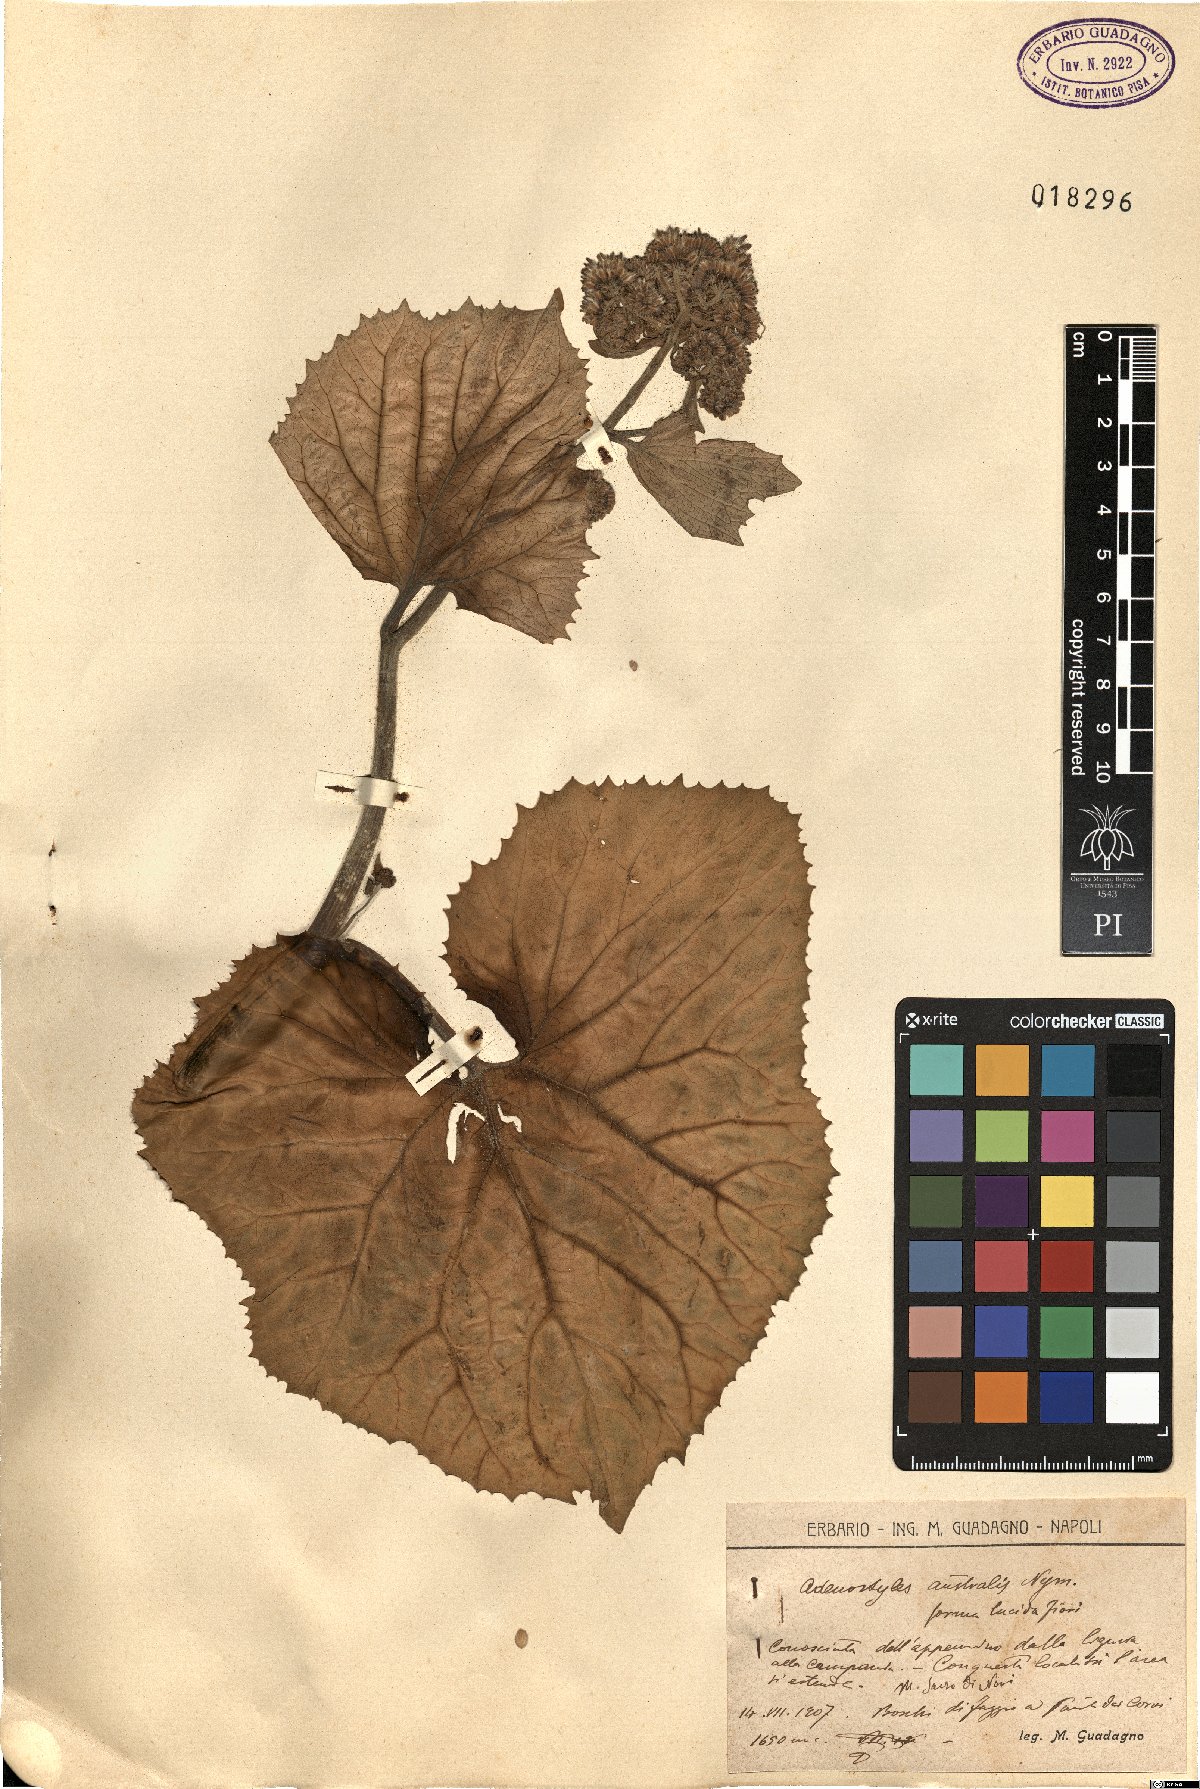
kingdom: Plantae
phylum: Tracheophyta
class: Magnoliopsida
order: Asterales
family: Asteraceae
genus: Adenostyles
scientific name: Adenostyles australis
